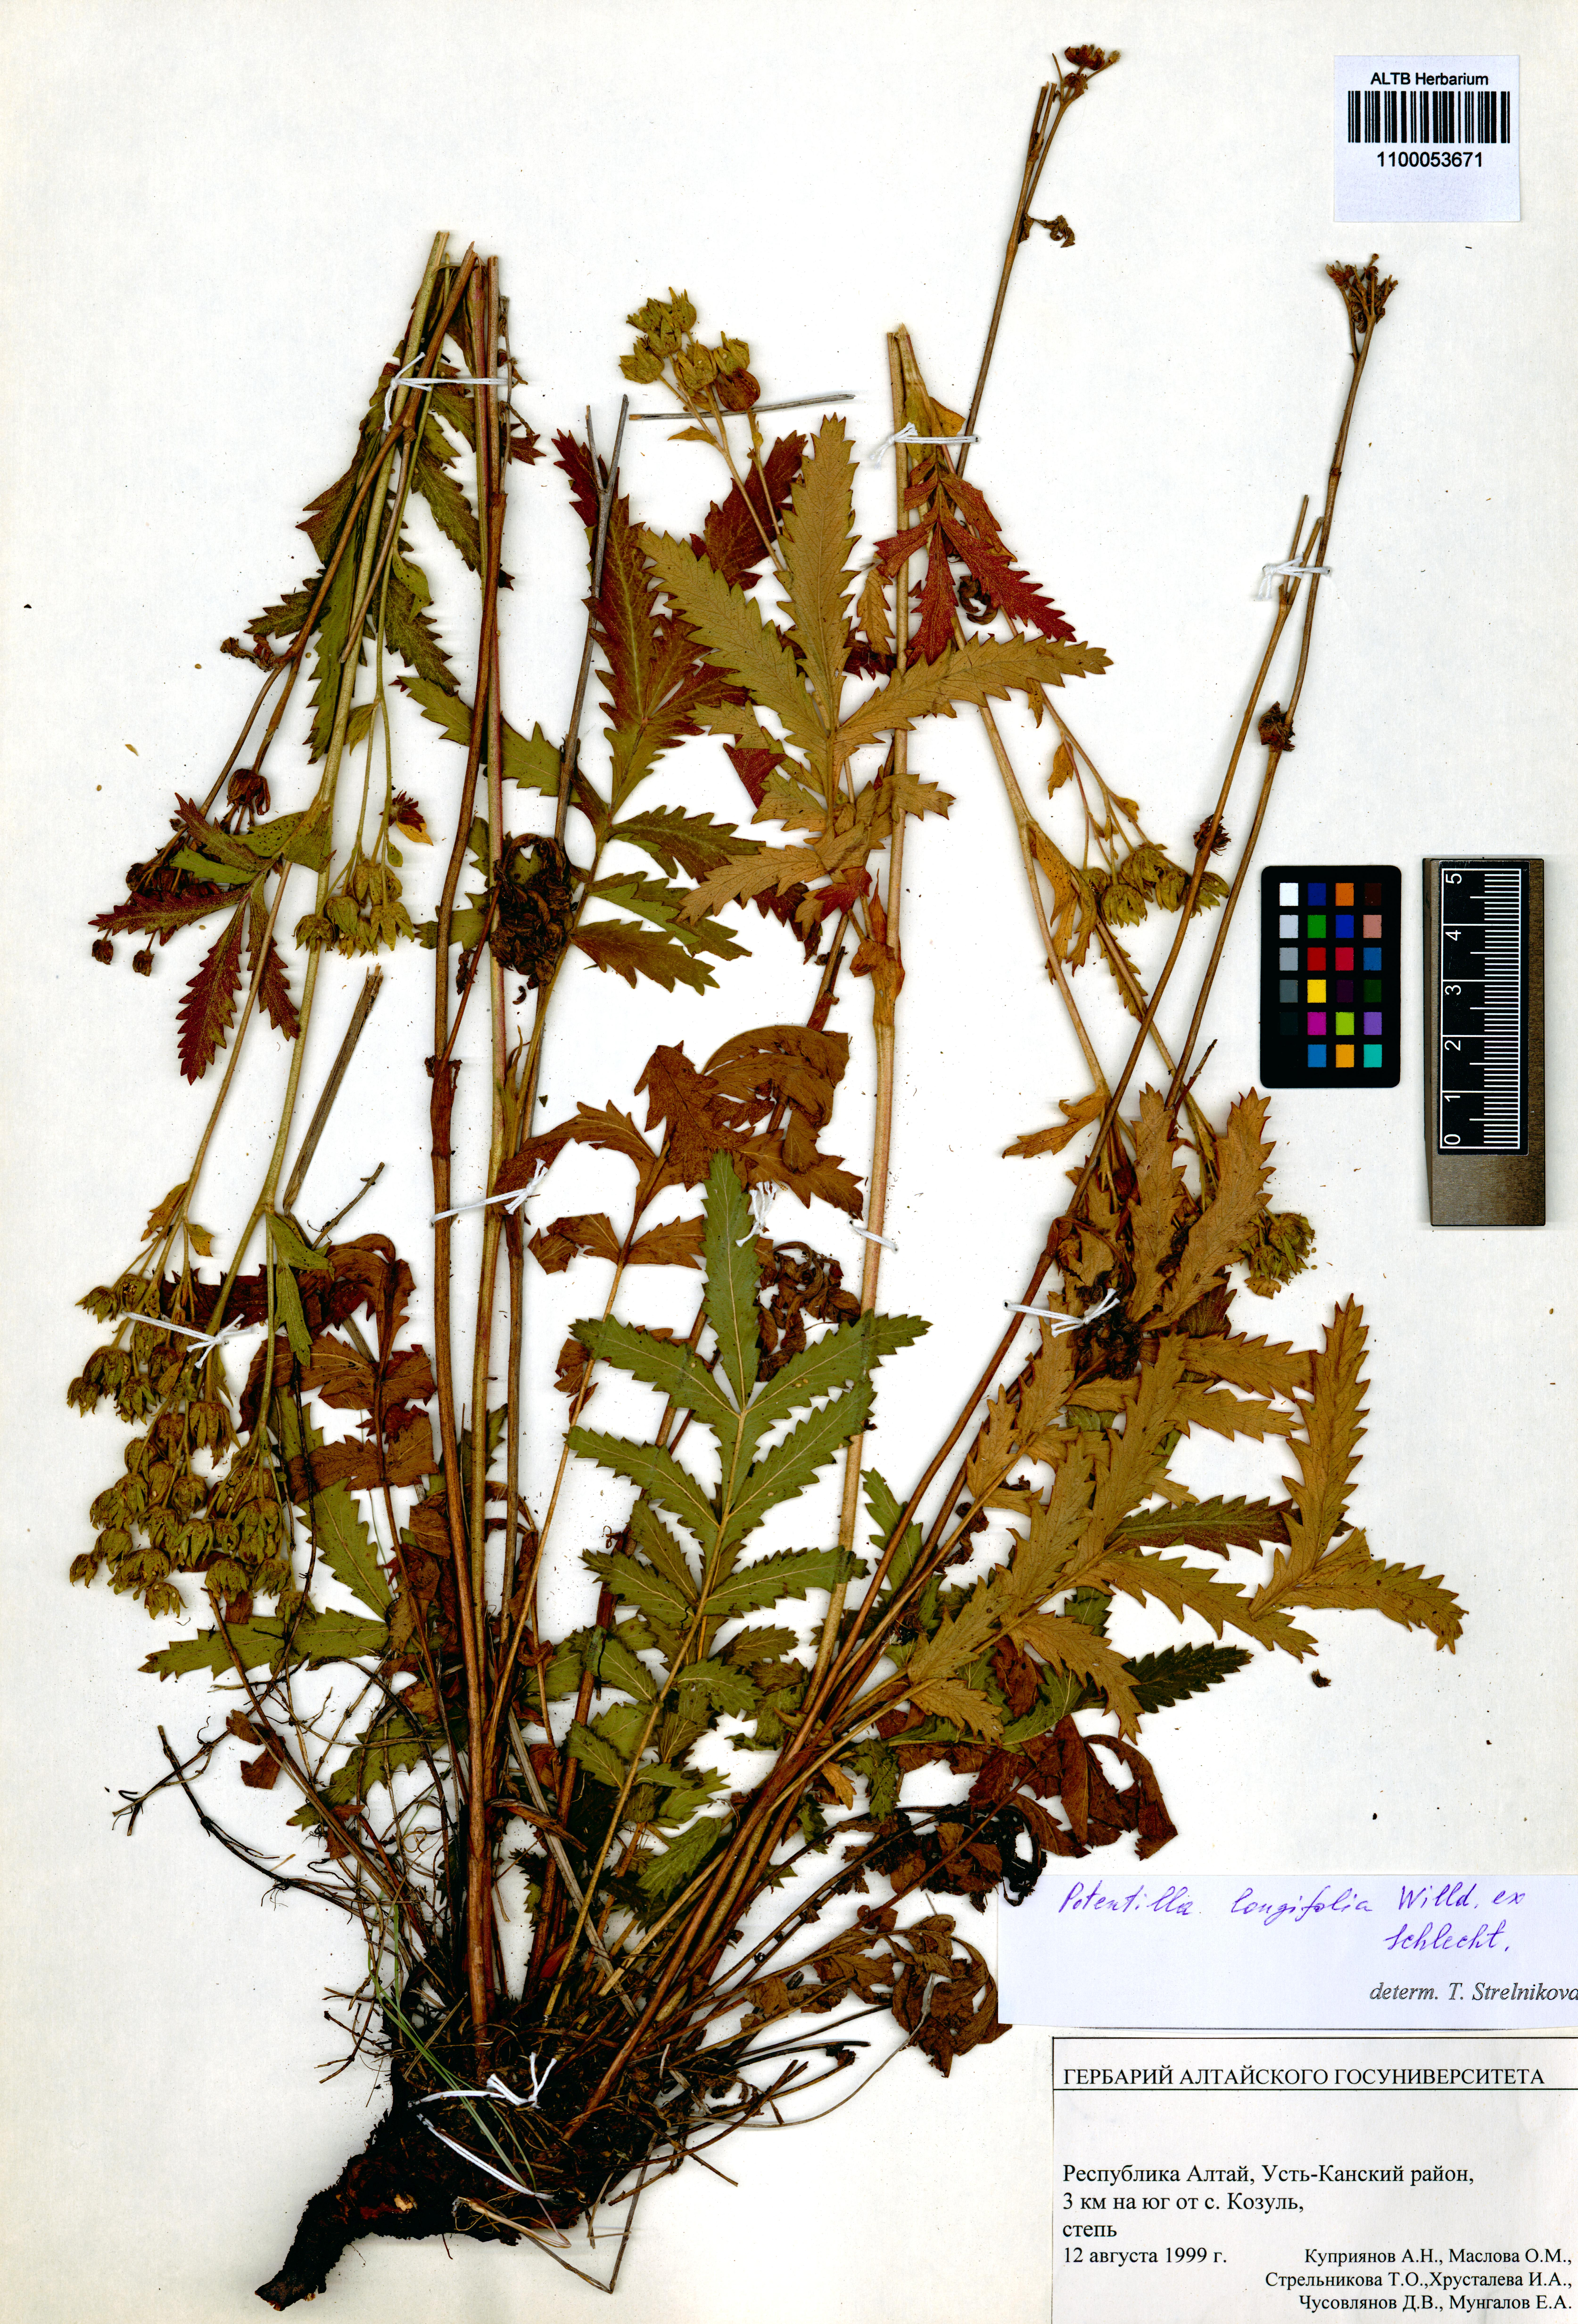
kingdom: Plantae
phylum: Tracheophyta
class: Magnoliopsida
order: Rosales
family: Rosaceae
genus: Potentilla
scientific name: Potentilla longifolia
